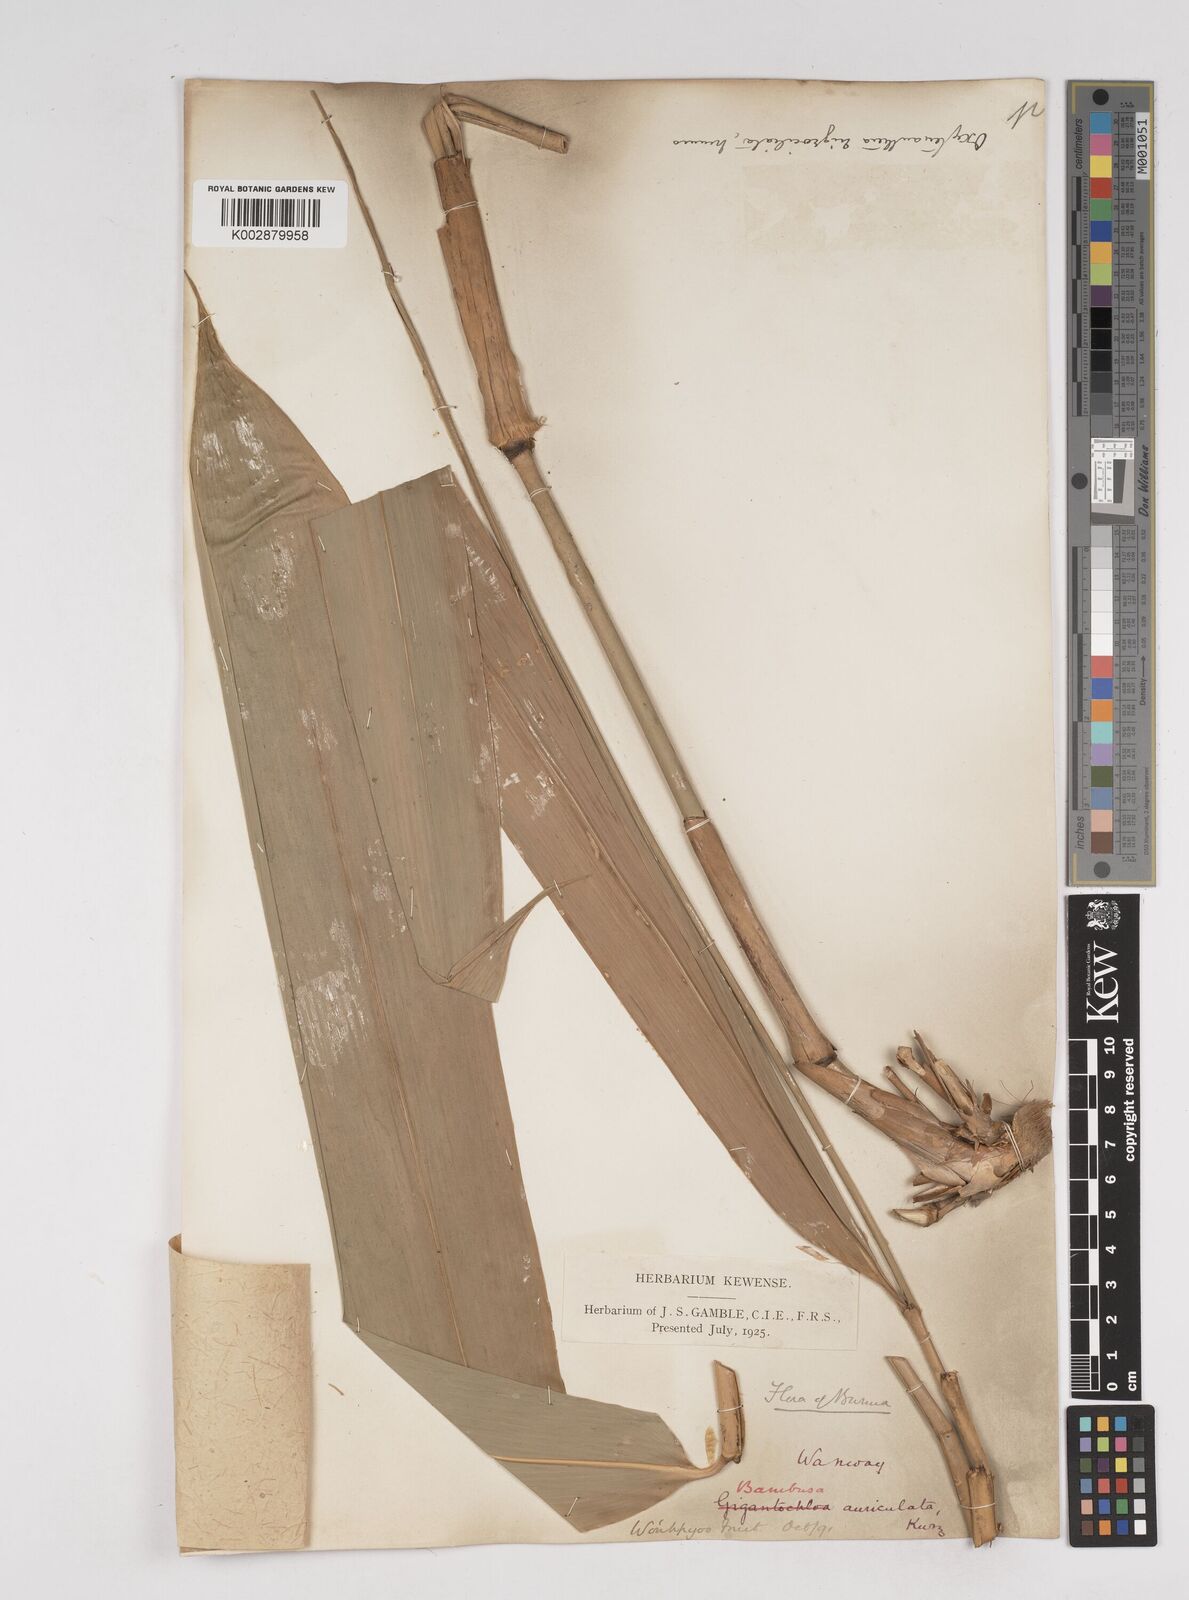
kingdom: Plantae
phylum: Tracheophyta
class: Liliopsida
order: Poales
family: Poaceae
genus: Gigantochloa
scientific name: Gigantochloa nigrociliata
